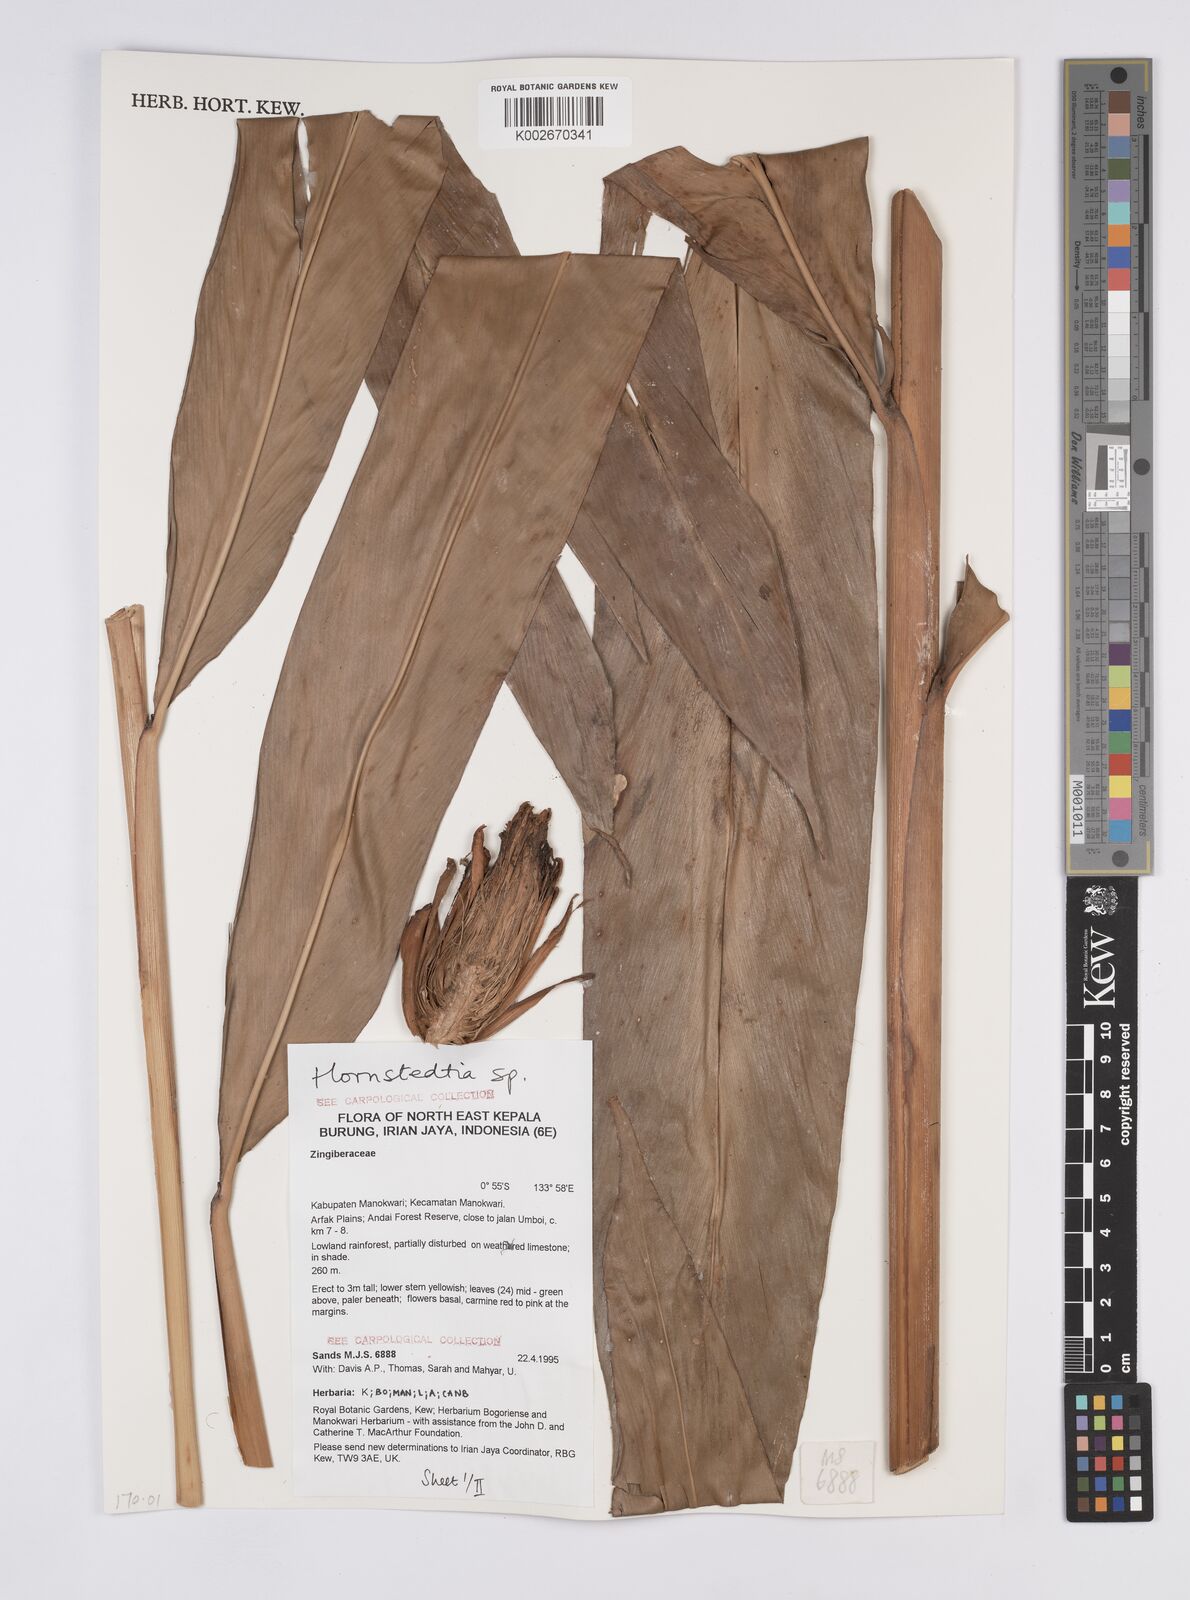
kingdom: Plantae
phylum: Tracheophyta
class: Liliopsida
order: Zingiberales
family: Zingiberaceae
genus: Hornstedtia
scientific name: Hornstedtia
